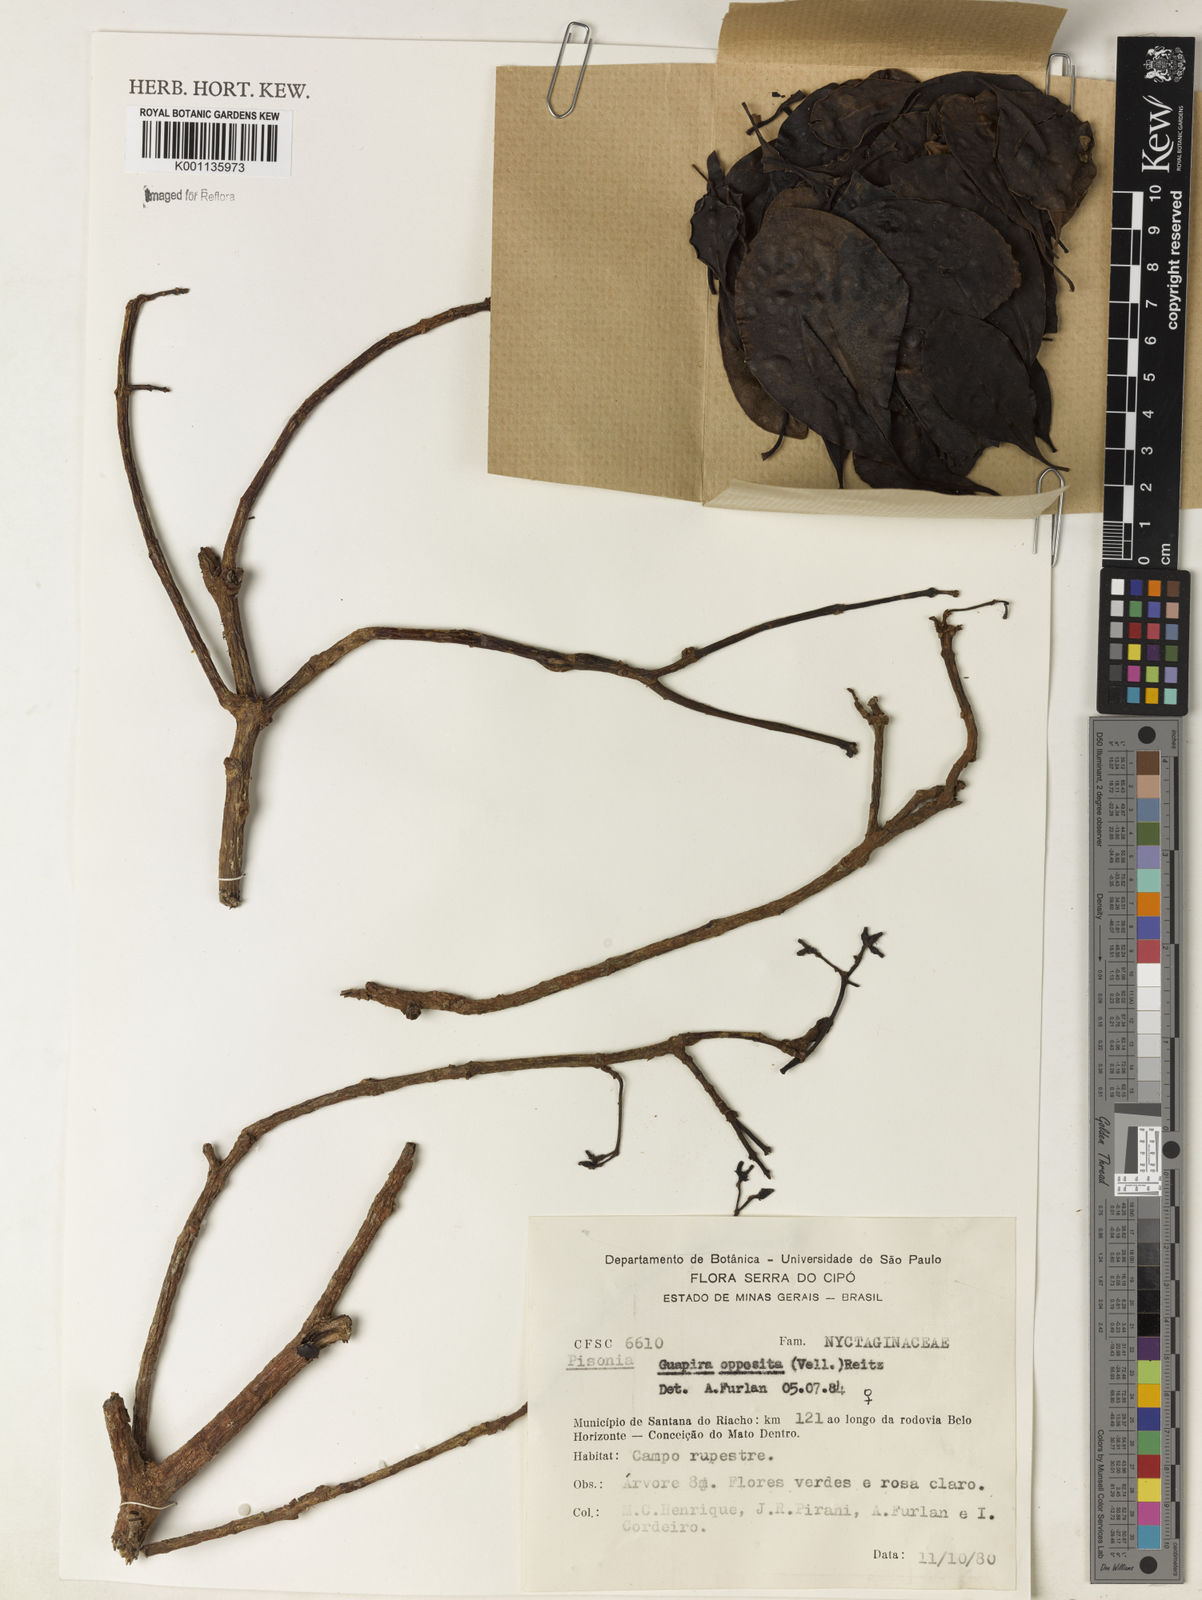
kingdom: Plantae
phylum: Tracheophyta
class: Magnoliopsida
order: Caryophyllales
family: Nyctaginaceae
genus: Guapira
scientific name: Guapira opposita
